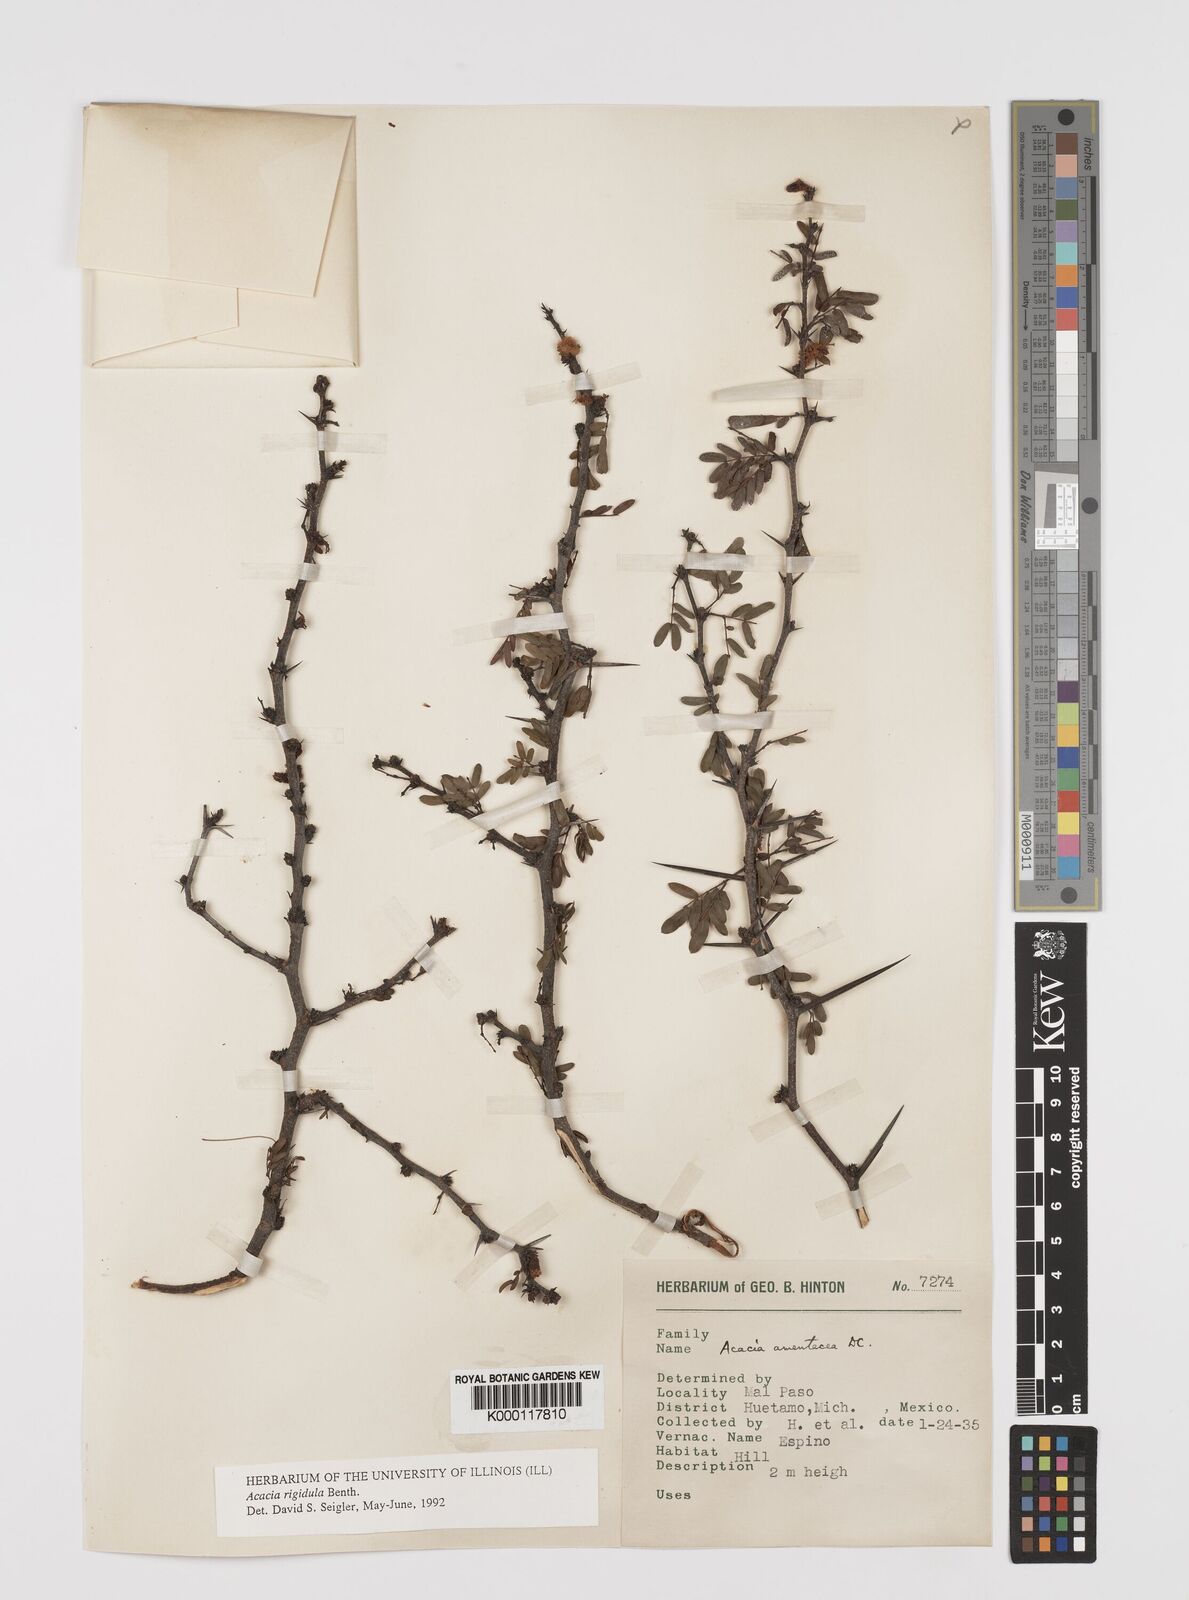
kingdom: Plantae
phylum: Tracheophyta
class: Magnoliopsida
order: Fabales
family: Fabaceae
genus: Vachellia
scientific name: Vachellia rigidula
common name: Blackbrush
